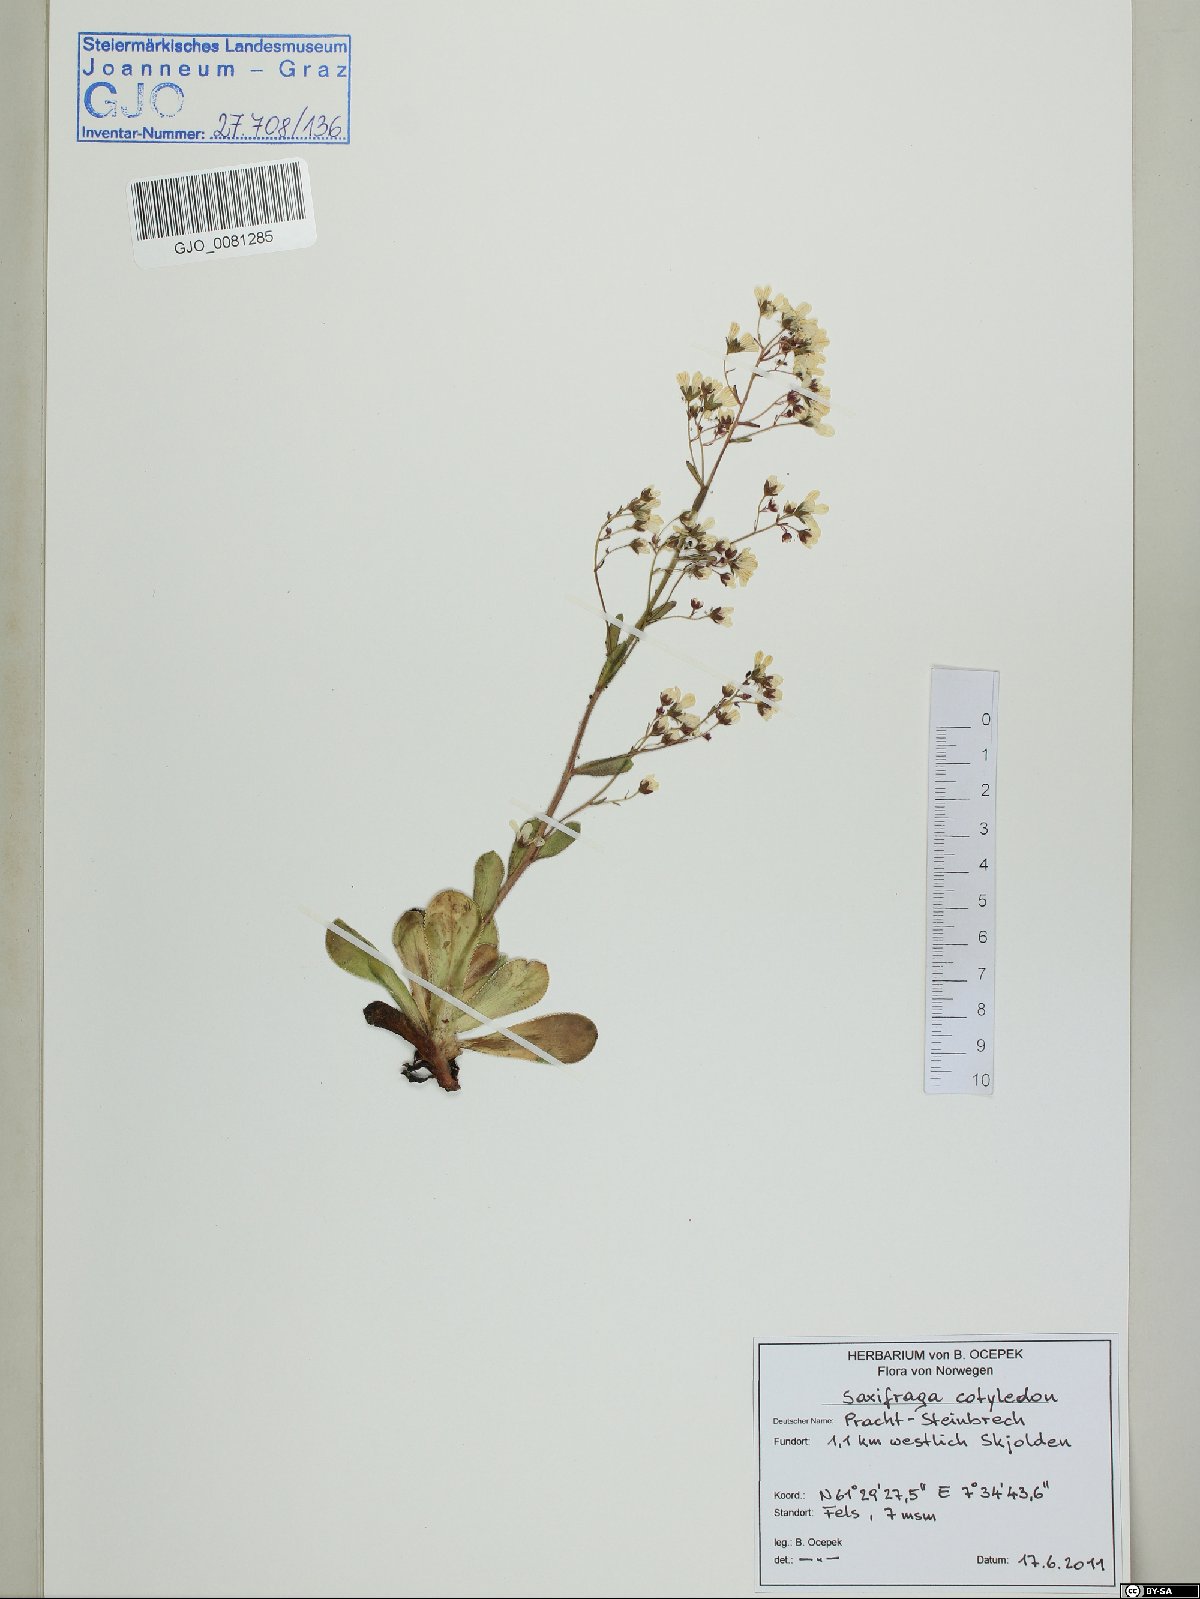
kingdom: Plantae
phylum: Tracheophyta
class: Magnoliopsida
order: Saxifragales
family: Saxifragaceae
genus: Saxifraga
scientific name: Saxifraga cotyledon
